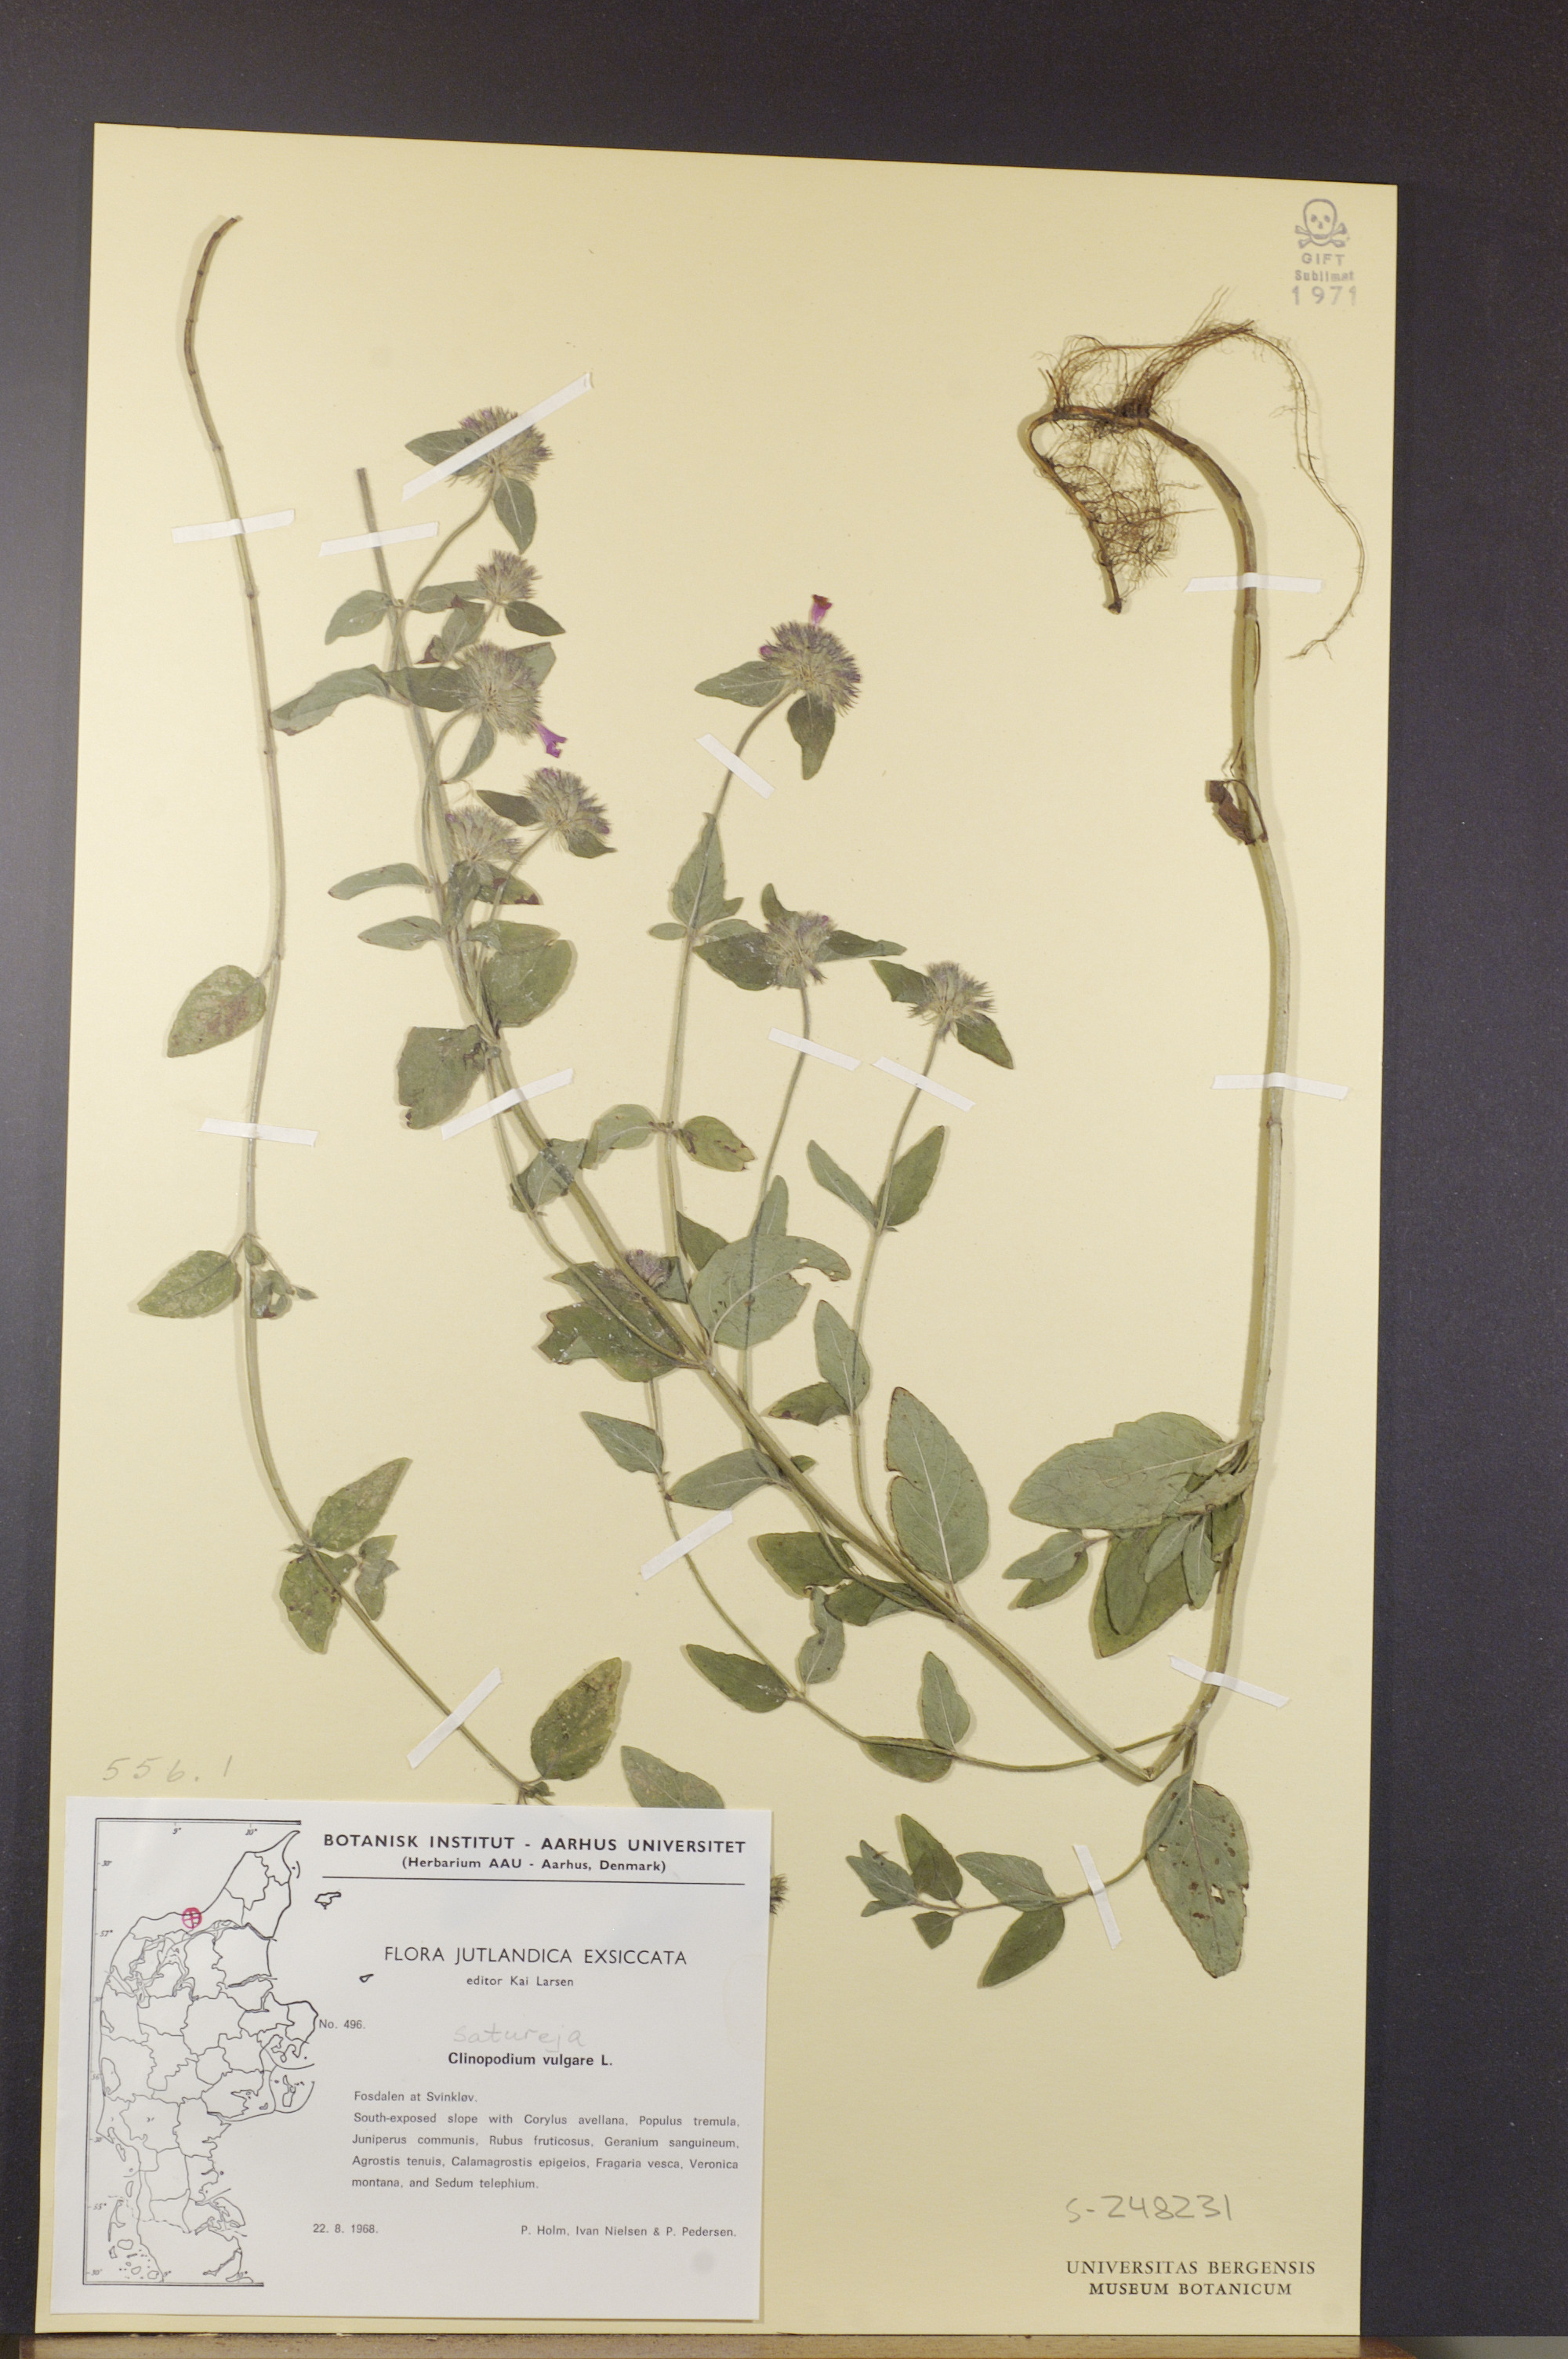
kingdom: Plantae
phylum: Tracheophyta
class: Magnoliopsida
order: Lamiales
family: Lamiaceae
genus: Clinopodium
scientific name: Clinopodium vulgare
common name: Wild basil
